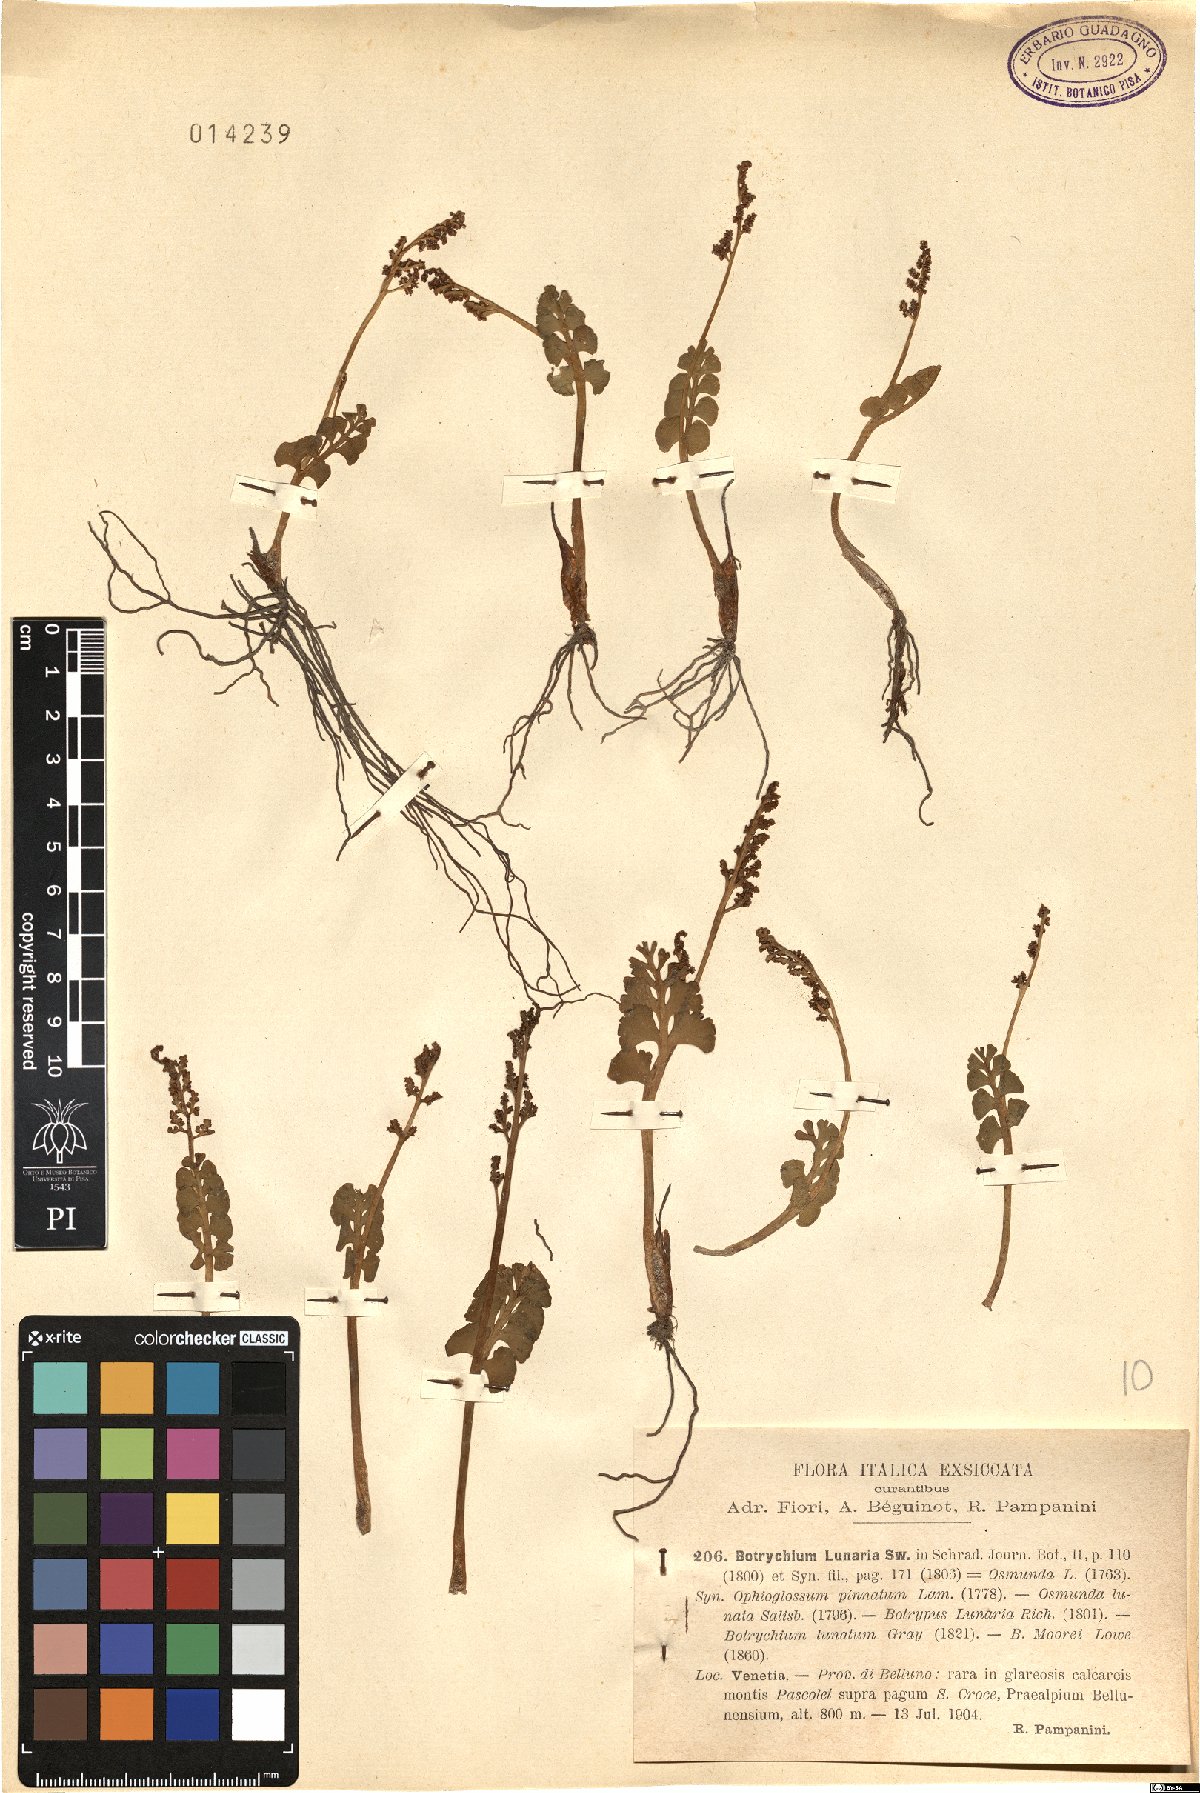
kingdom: Plantae
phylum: Tracheophyta
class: Polypodiopsida
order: Ophioglossales
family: Ophioglossaceae
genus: Botrychium
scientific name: Botrychium lunaria
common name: Moonwort
